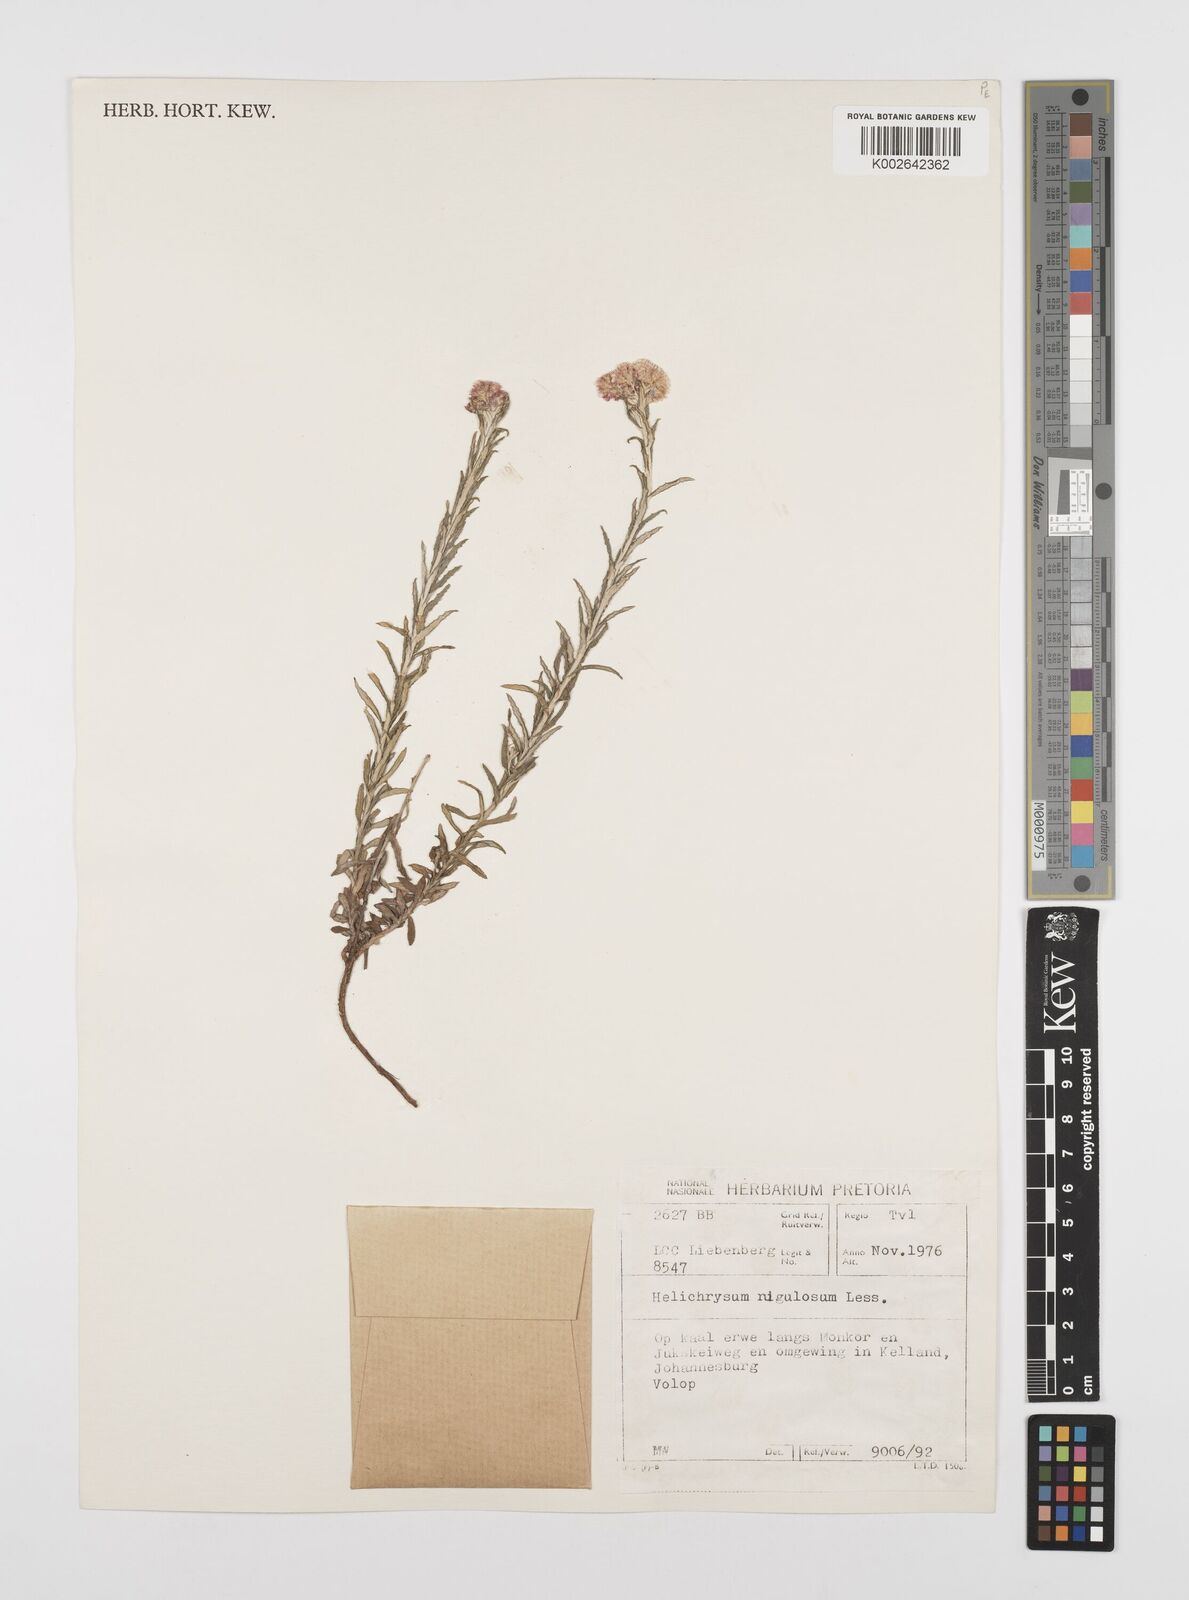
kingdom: Plantae
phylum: Tracheophyta
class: Magnoliopsida
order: Asterales
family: Asteraceae
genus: Helichrysum
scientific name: Helichrysum rugulosum
